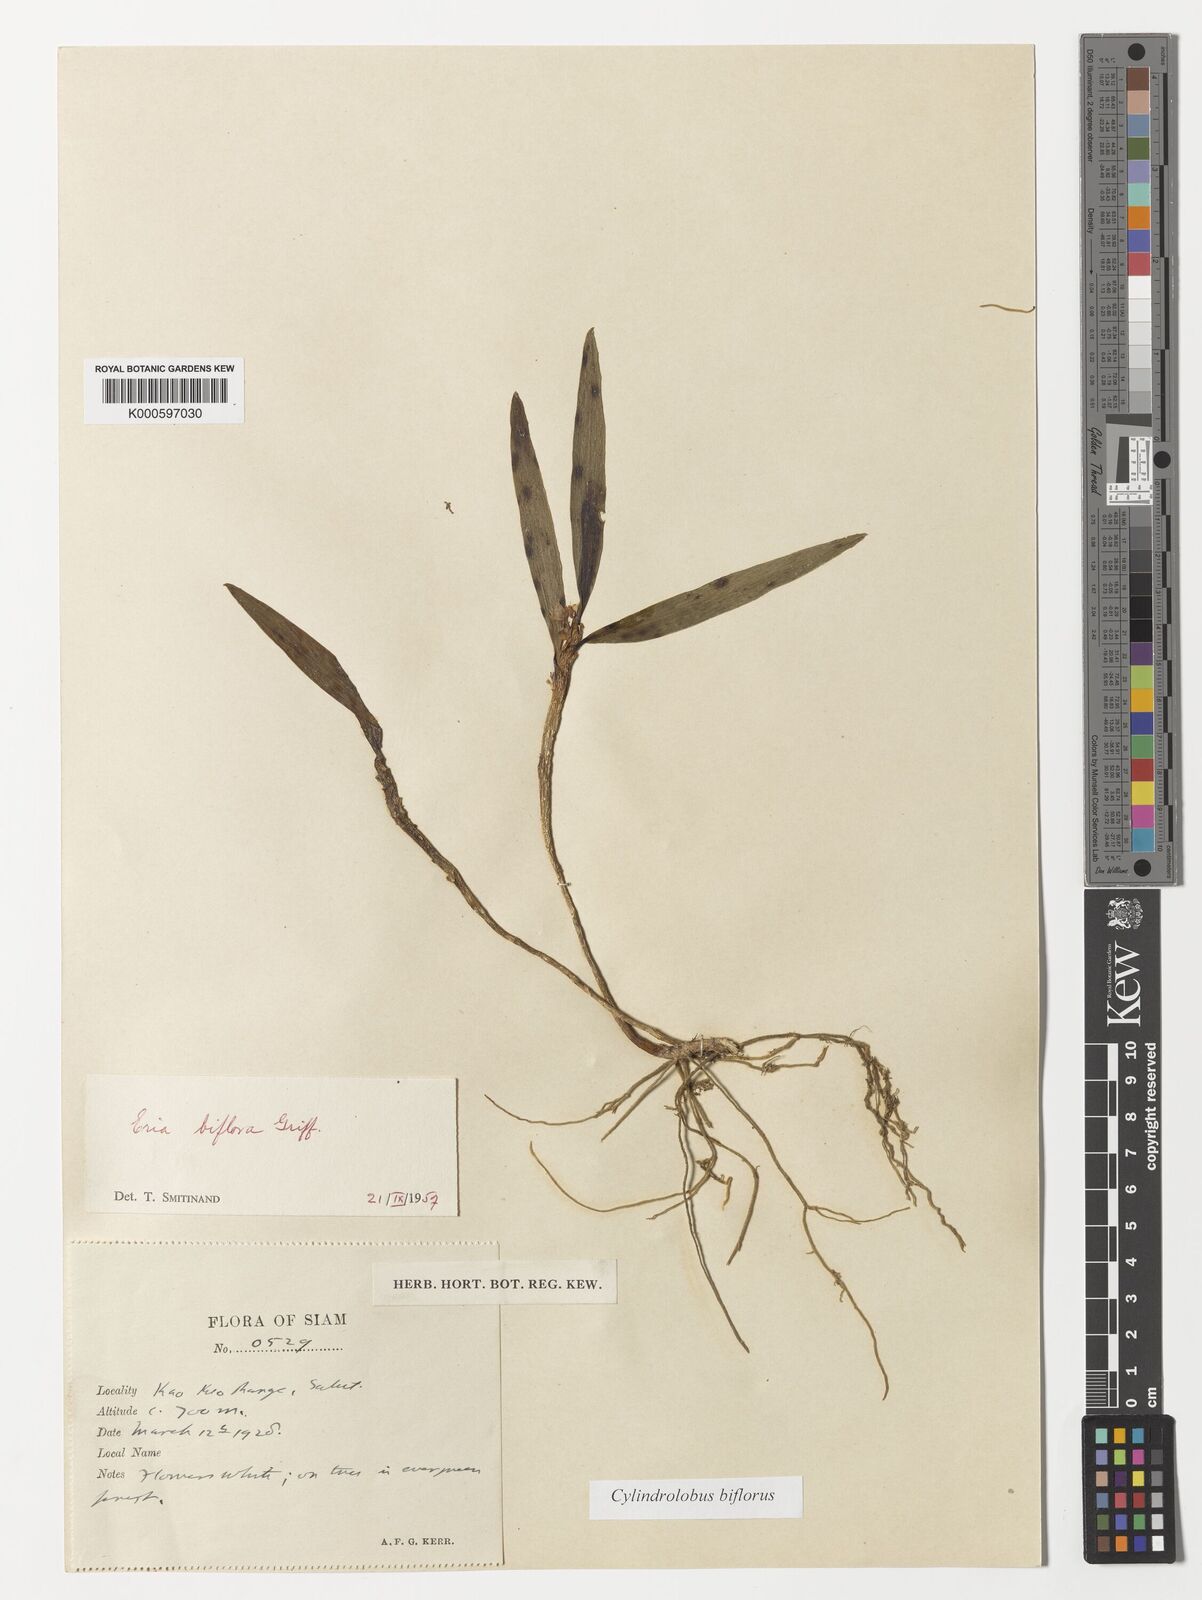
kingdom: Plantae
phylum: Tracheophyta
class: Liliopsida
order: Asparagales
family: Orchidaceae
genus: Cylindrolobus
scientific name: Cylindrolobus biflorus
